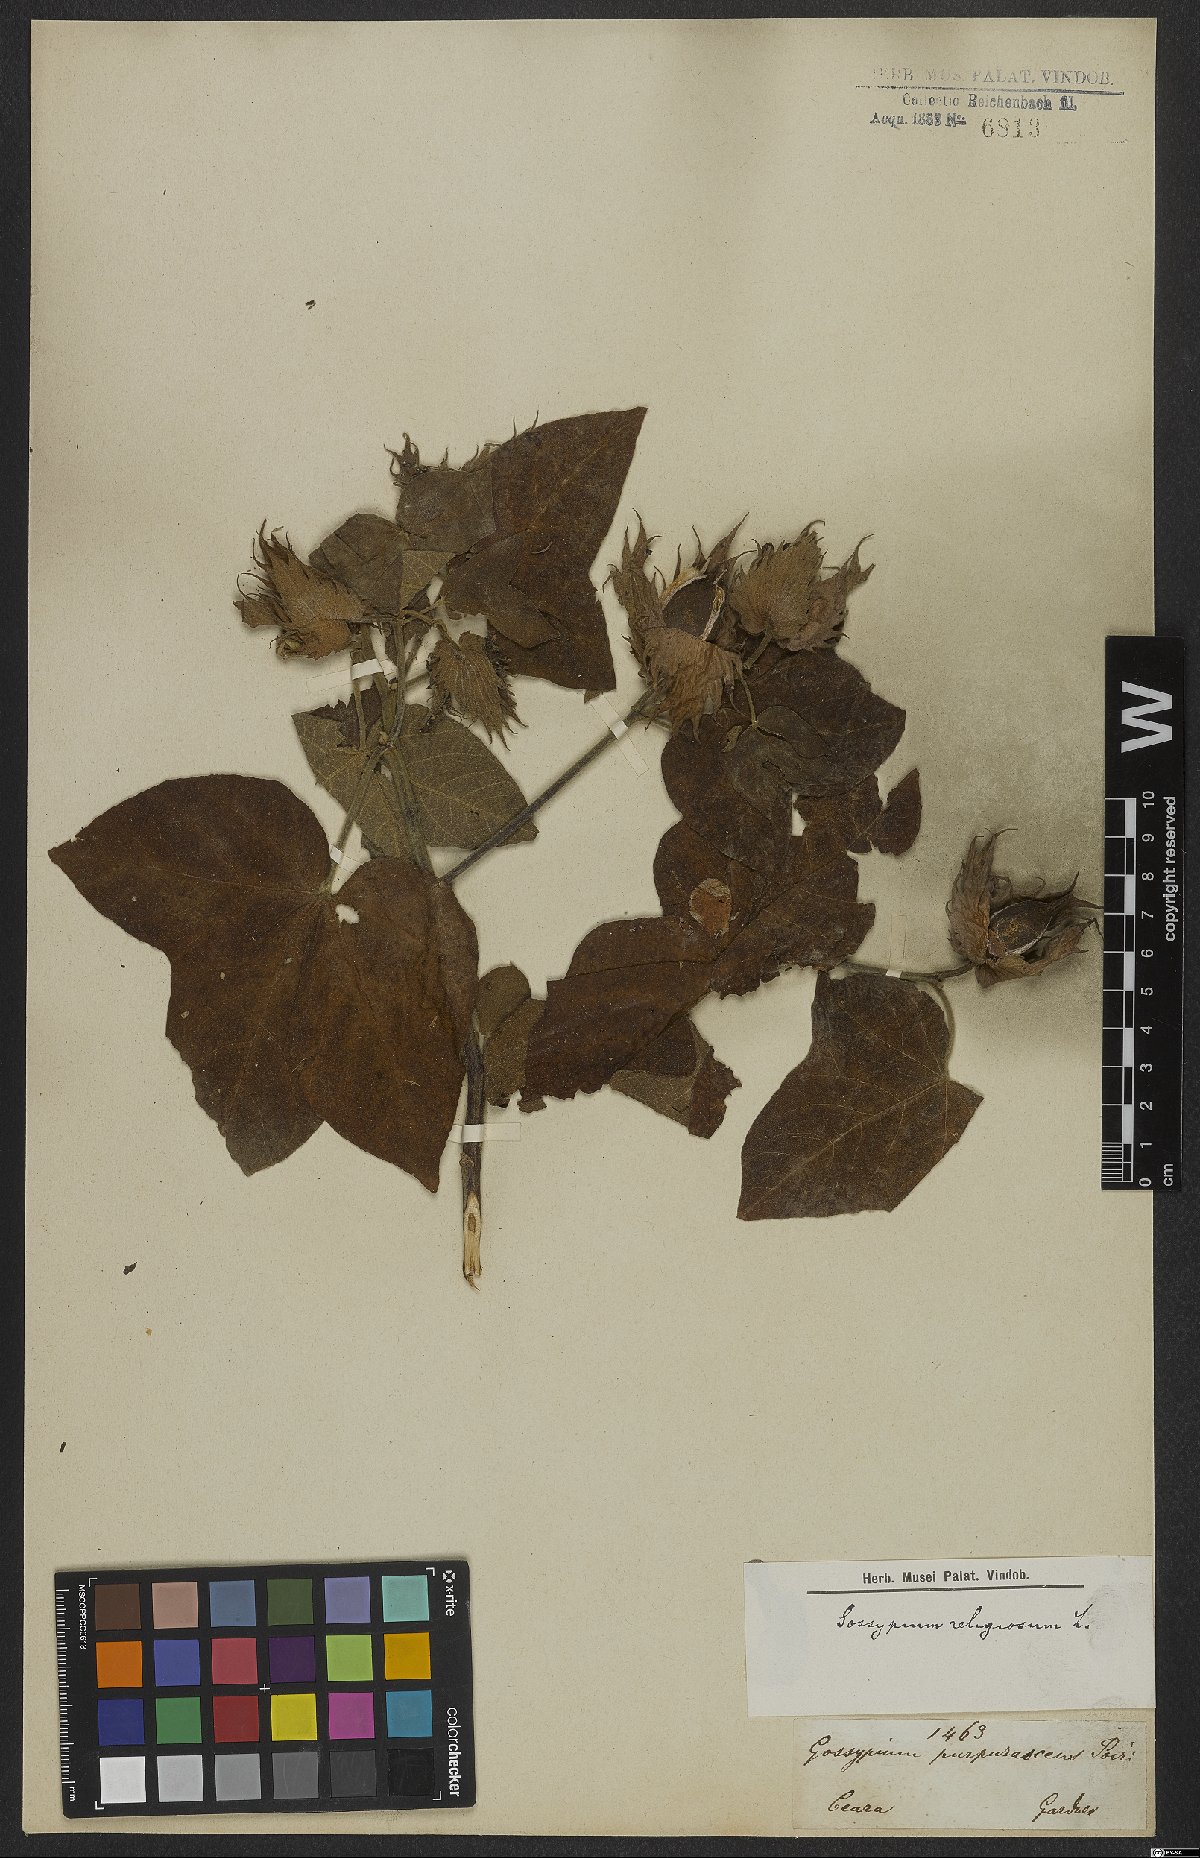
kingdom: Plantae
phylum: Tracheophyta
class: Magnoliopsida
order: Malvales
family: Malvaceae
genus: Gossypium
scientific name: Gossypium hirsutum
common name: Cotton
